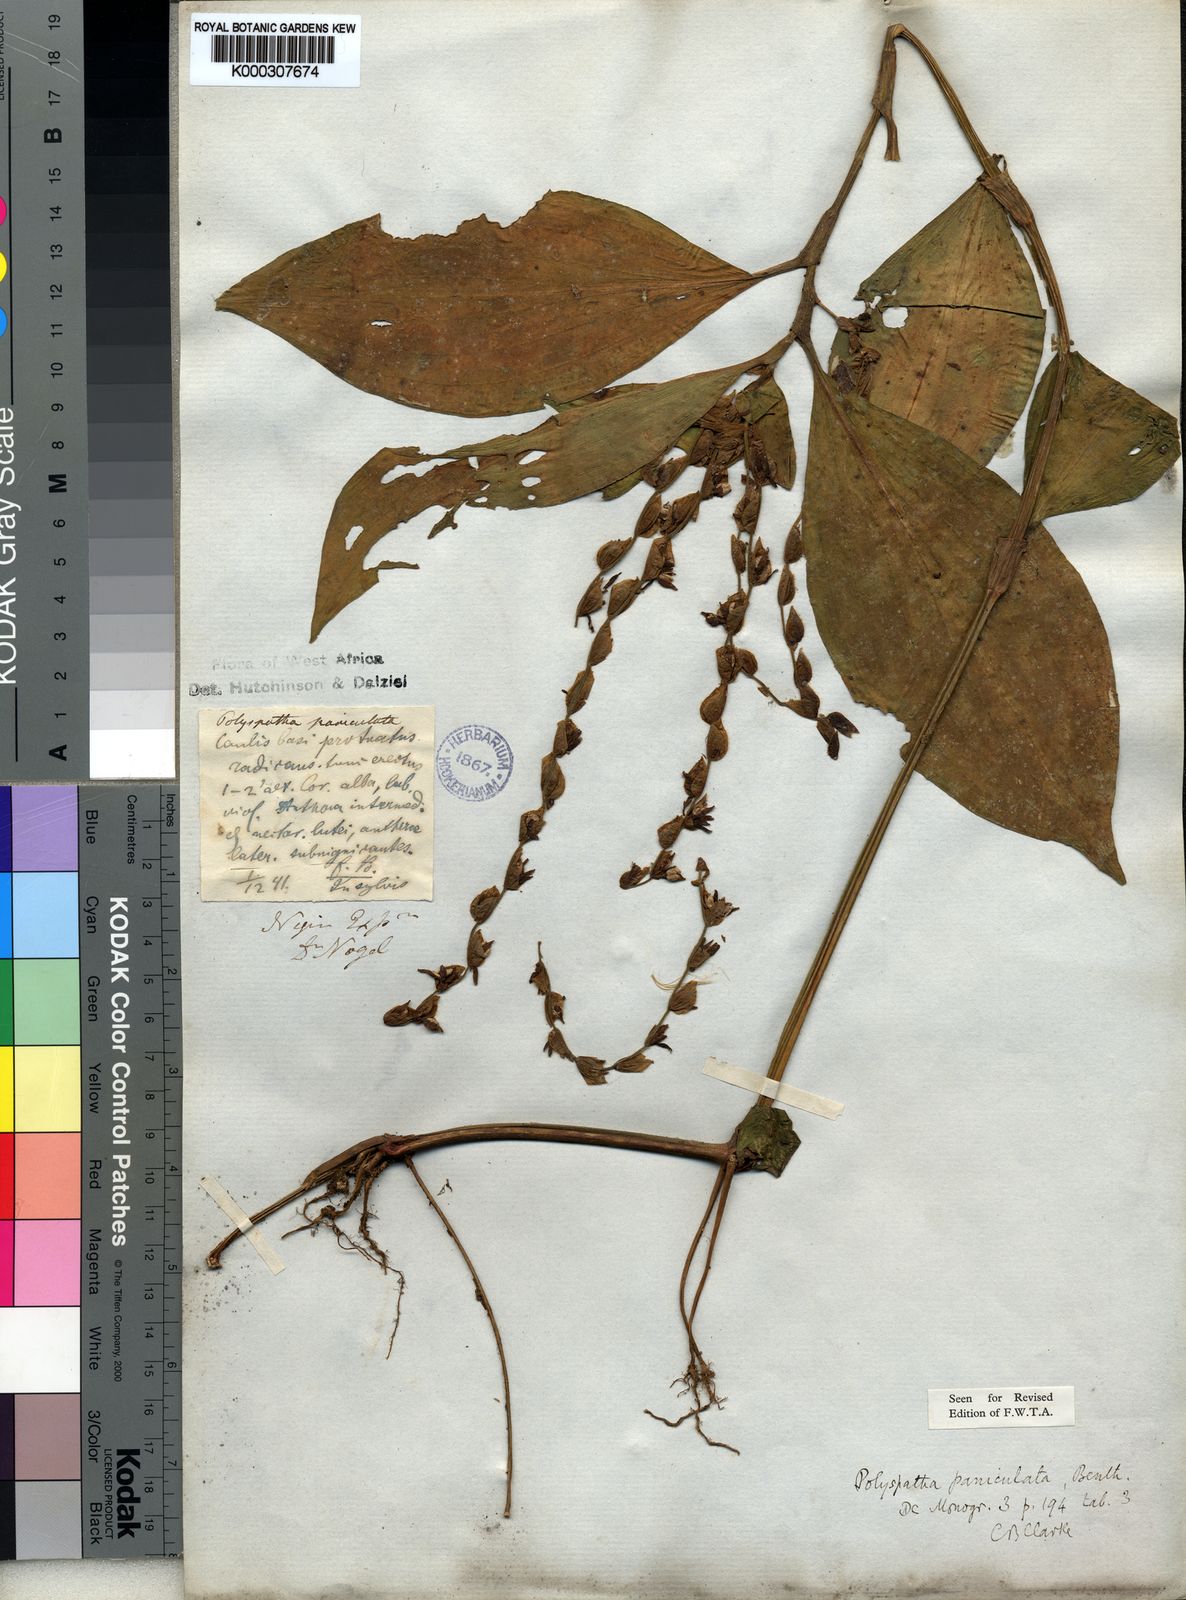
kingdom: Plantae
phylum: Tracheophyta
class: Liliopsida
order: Commelinales
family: Commelinaceae
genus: Polyspatha
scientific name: Polyspatha paniculata
